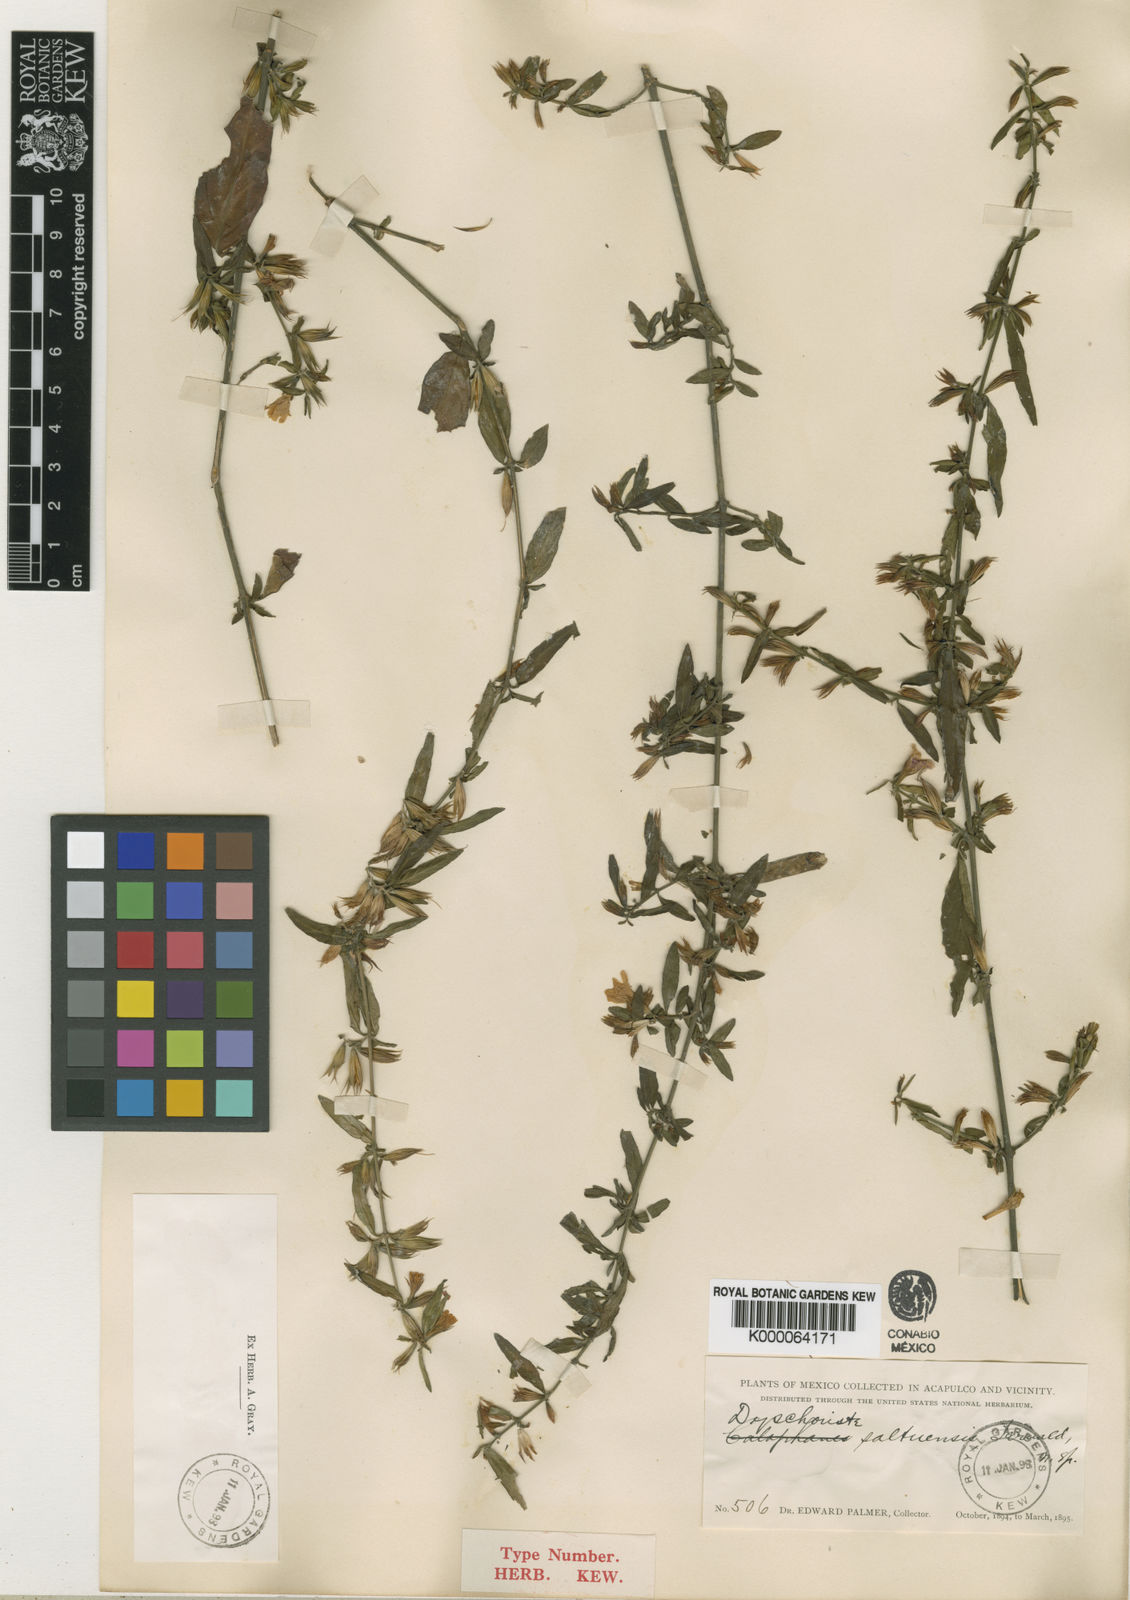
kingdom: Plantae
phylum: Tracheophyta
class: Magnoliopsida
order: Lamiales
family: Acanthaceae
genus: Dyschoriste
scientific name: Dyschoriste saltuensis
